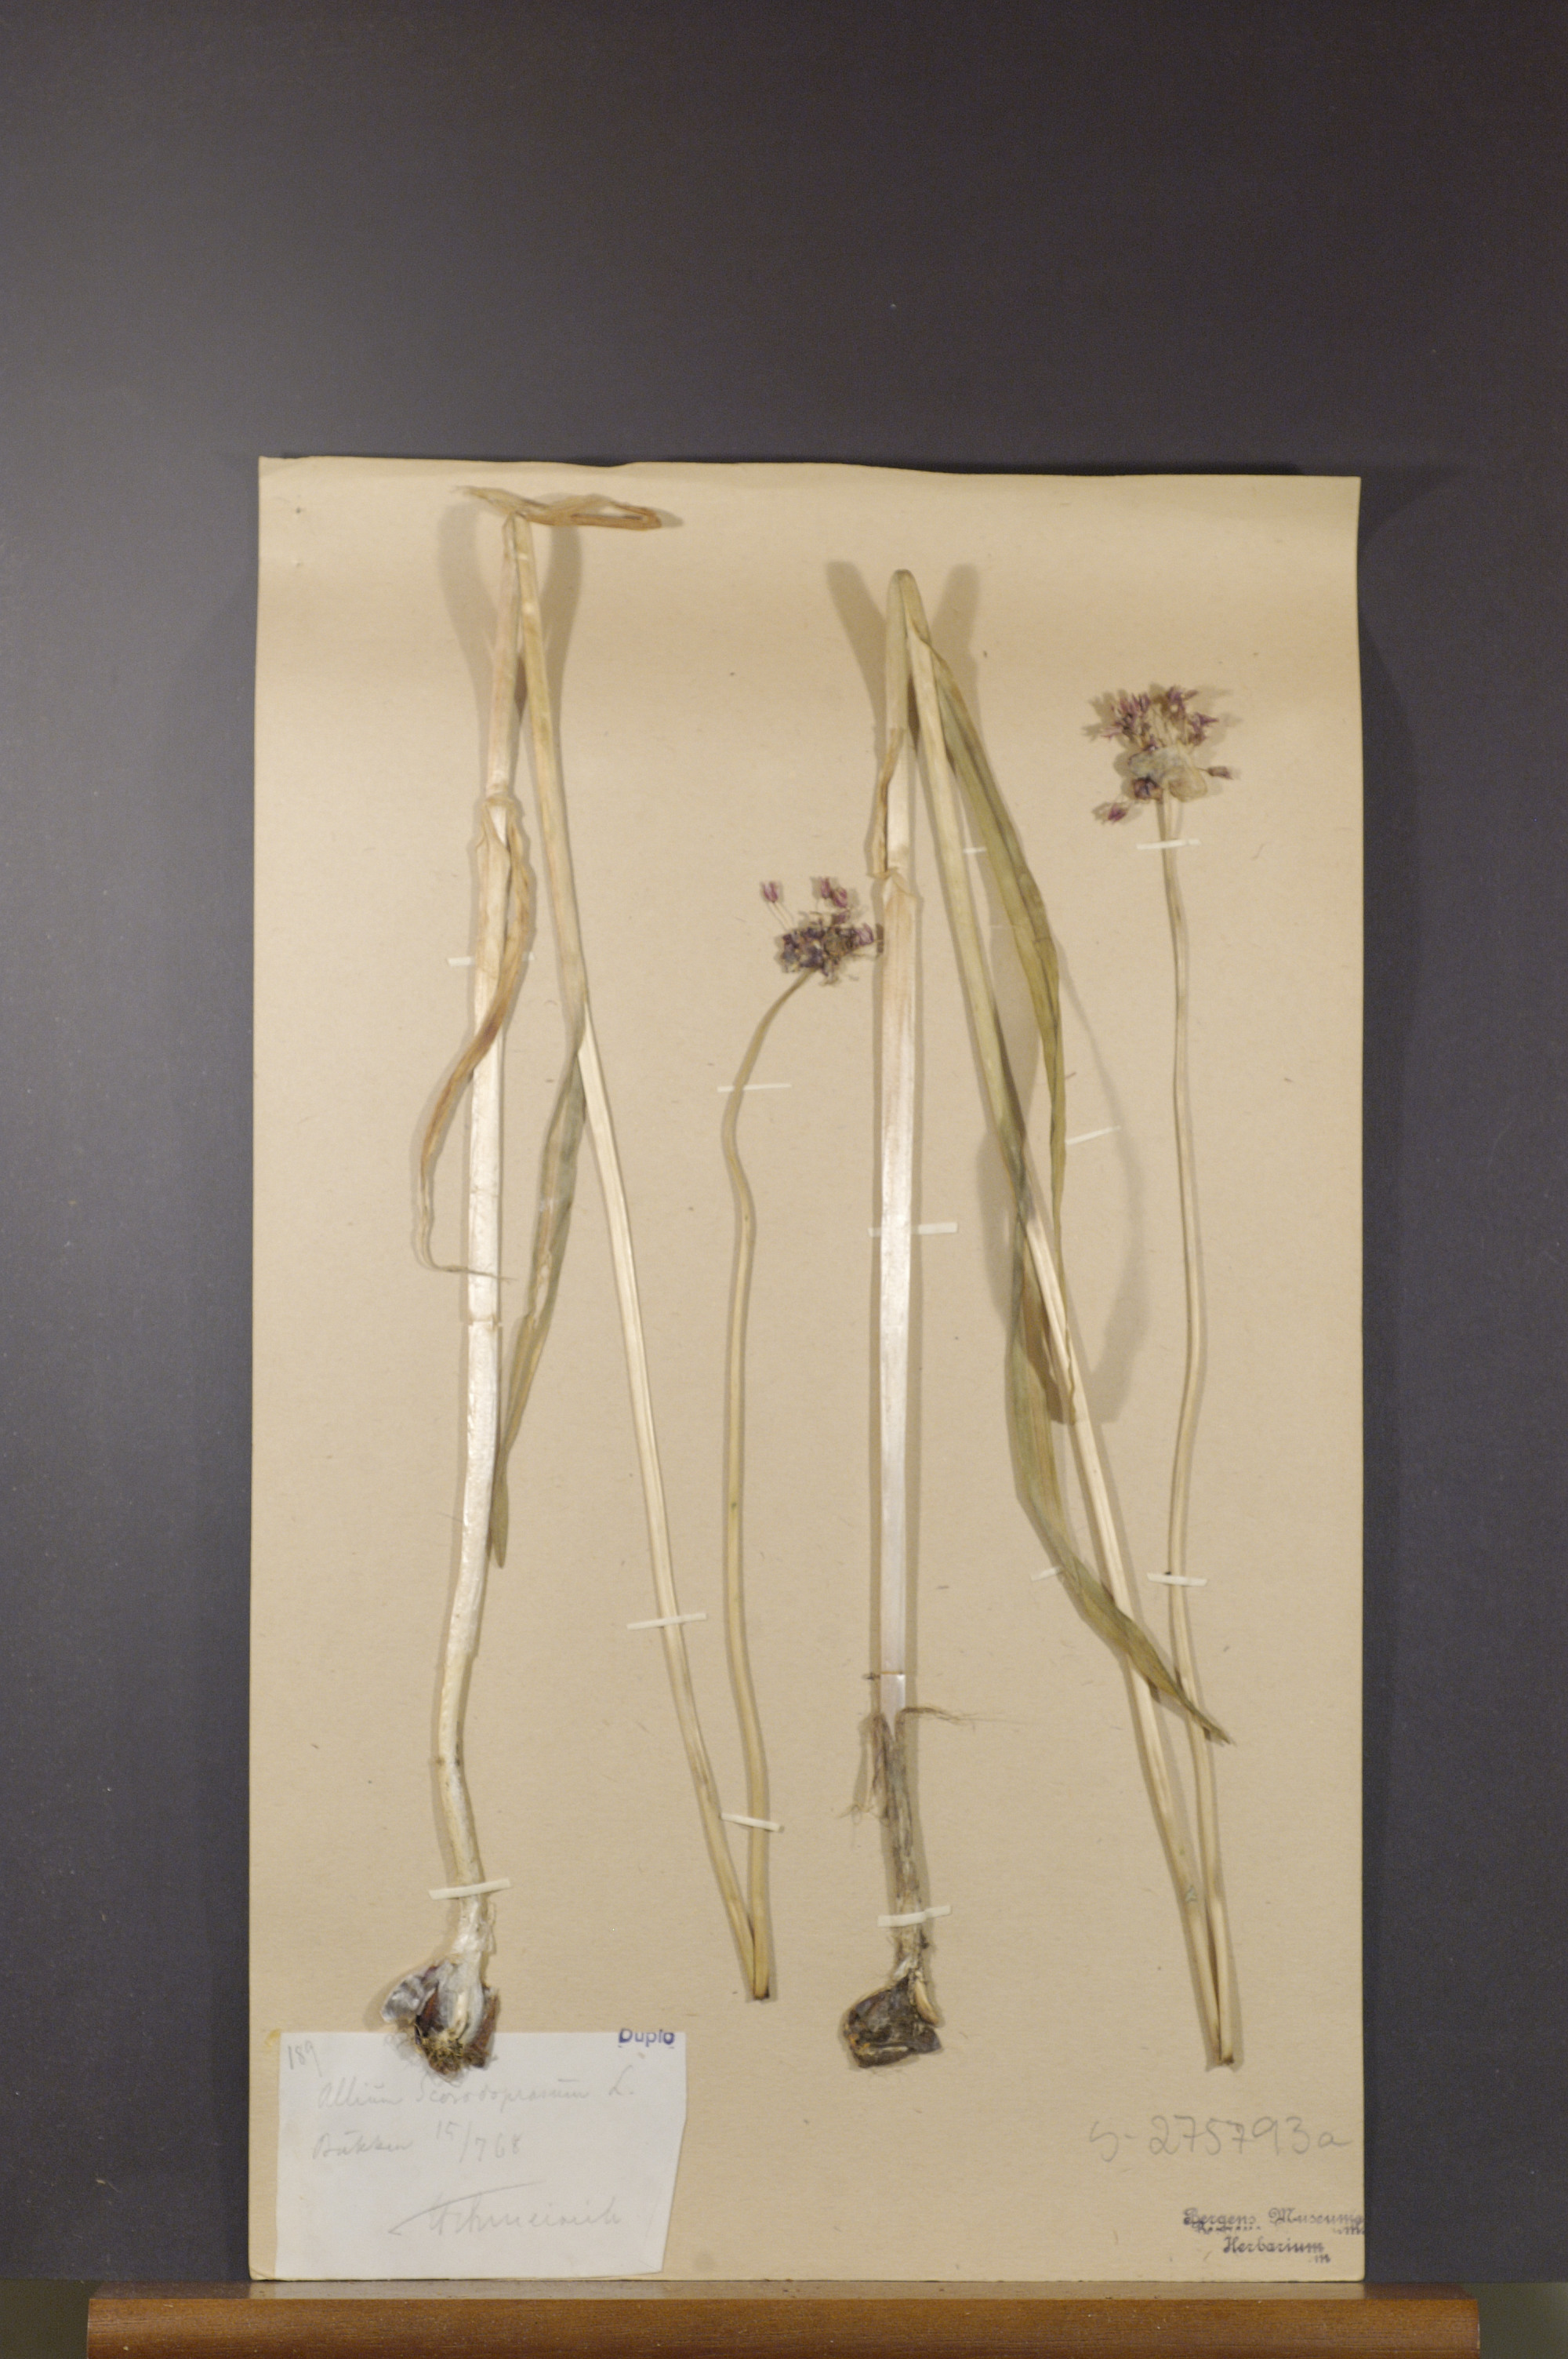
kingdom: Plantae
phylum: Tracheophyta
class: Liliopsida
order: Asparagales
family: Amaryllidaceae
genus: Allium
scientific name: Allium scorodoprasum
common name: Sand leek
